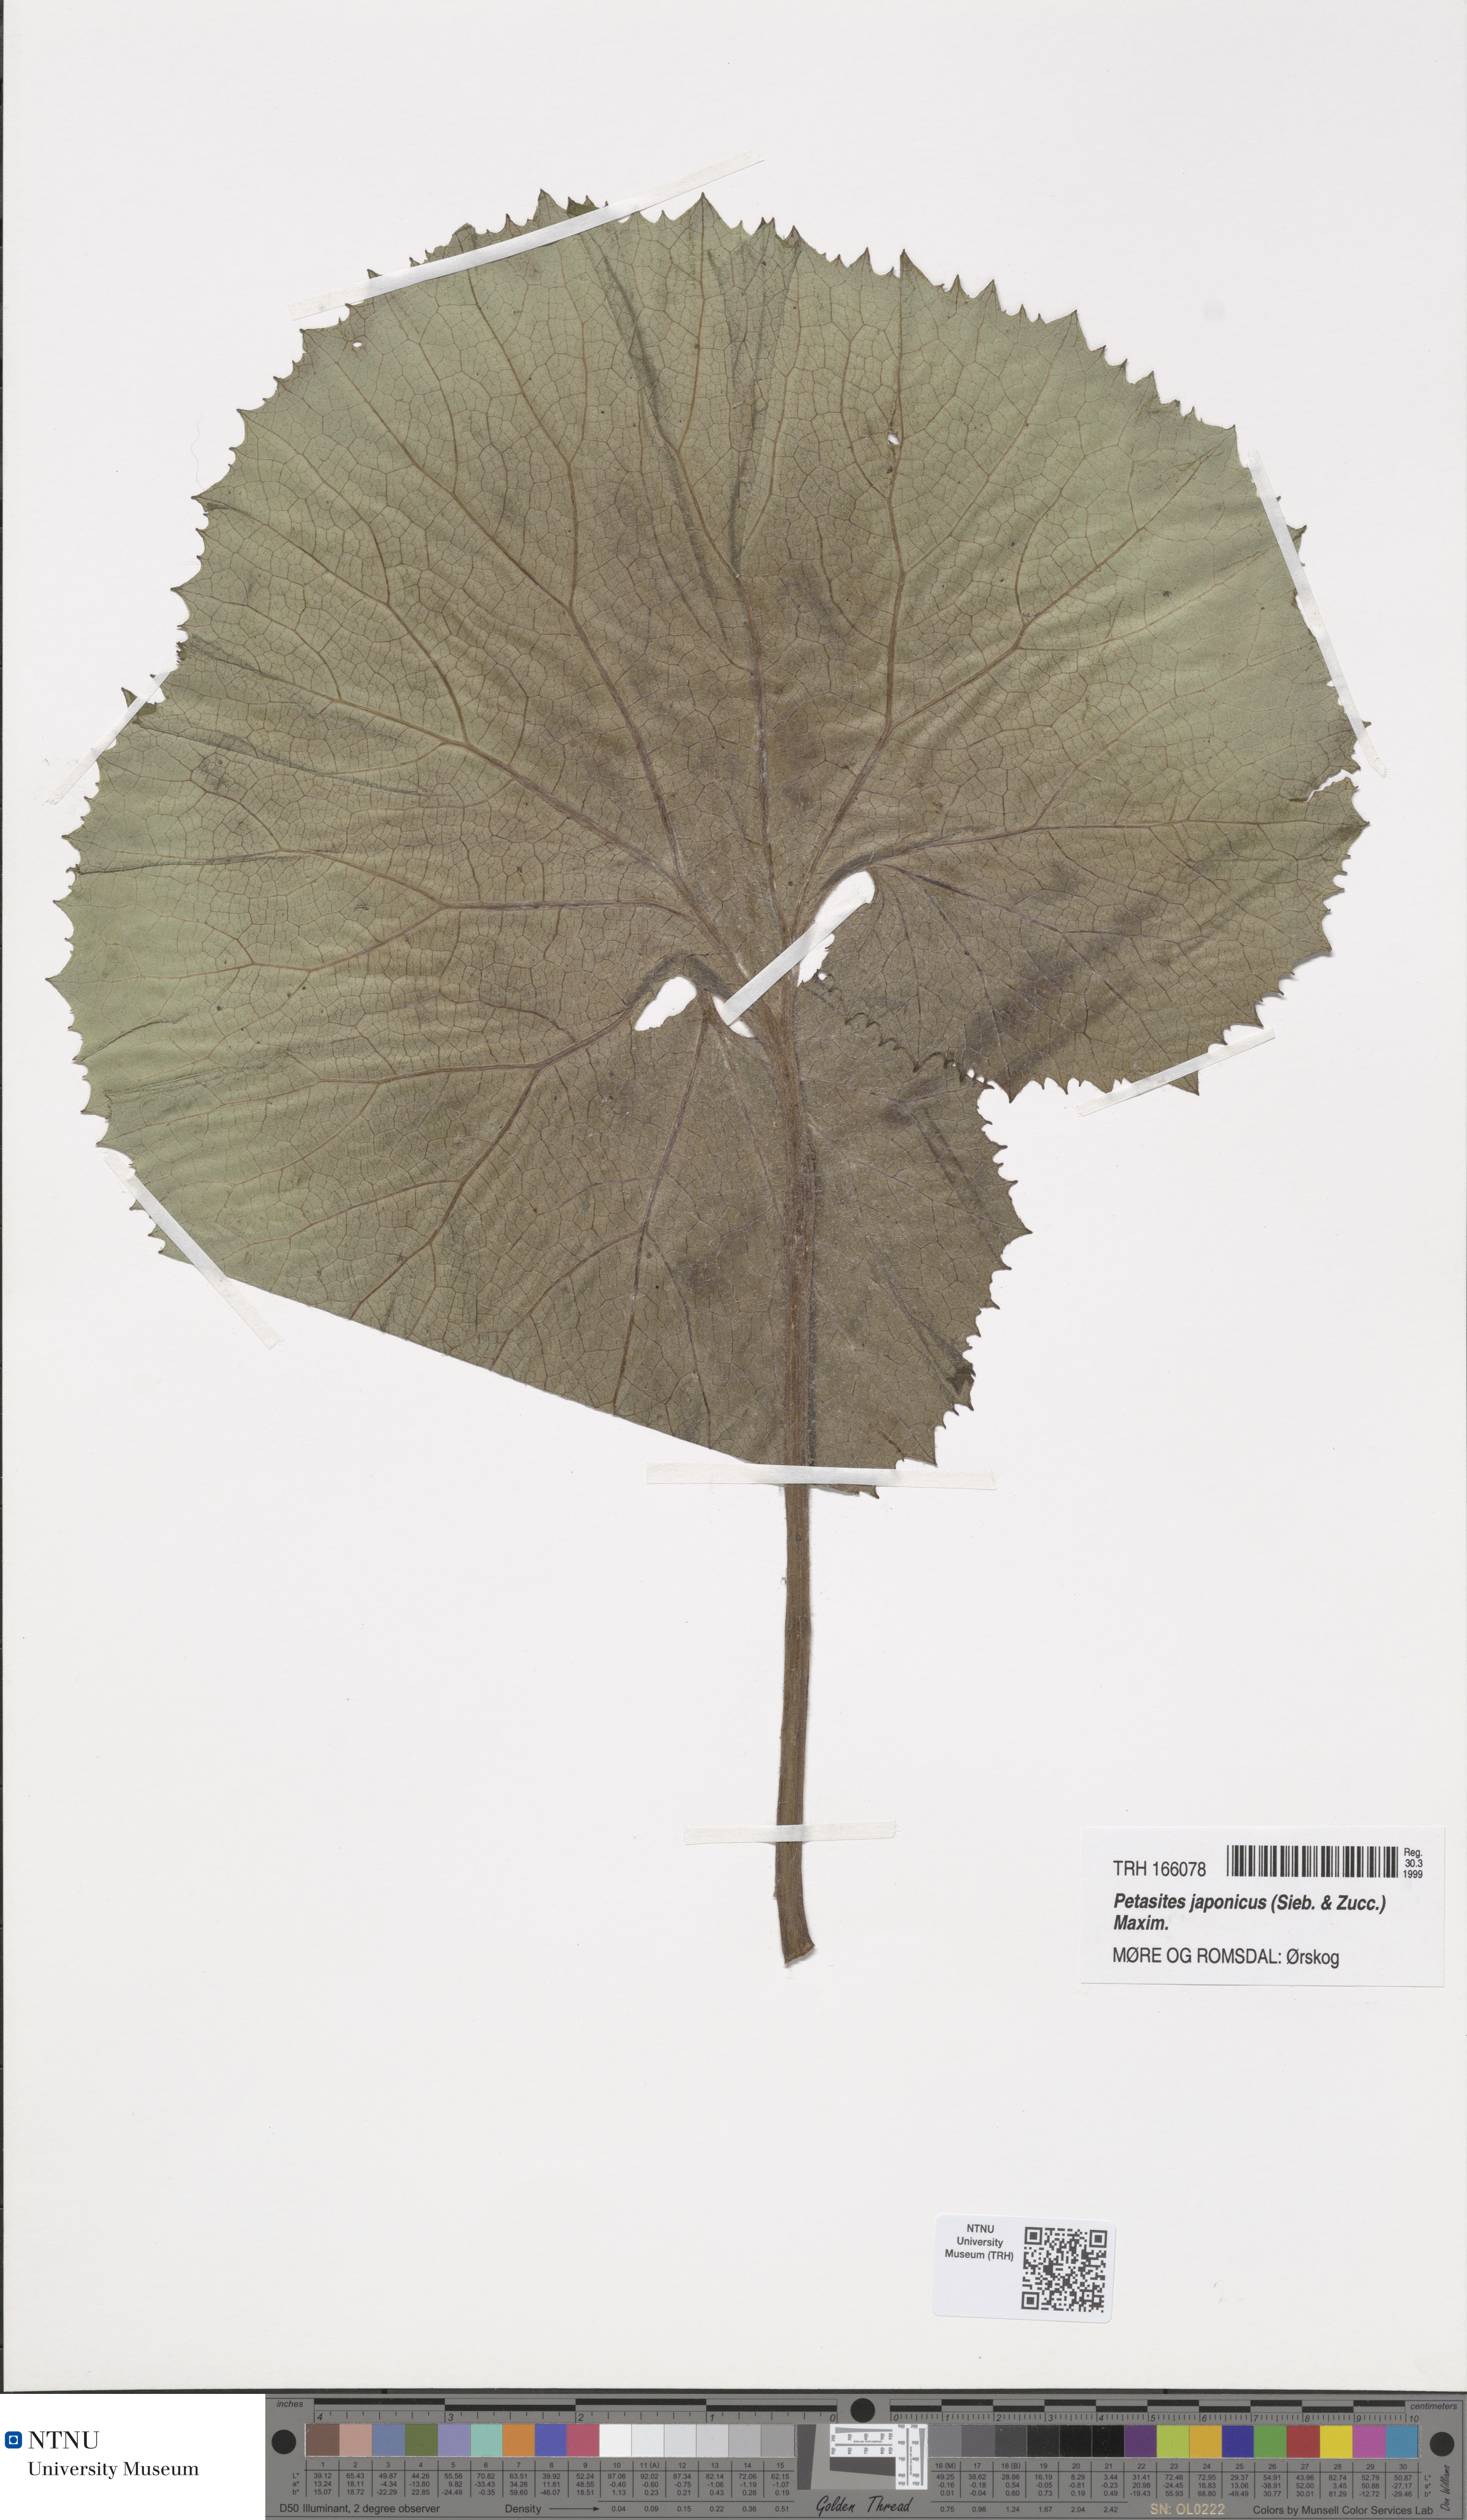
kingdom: Plantae
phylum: Tracheophyta
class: Magnoliopsida
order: Asterales
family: Asteraceae
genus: Petasites
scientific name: Petasites japonicus
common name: Giant butterbur
